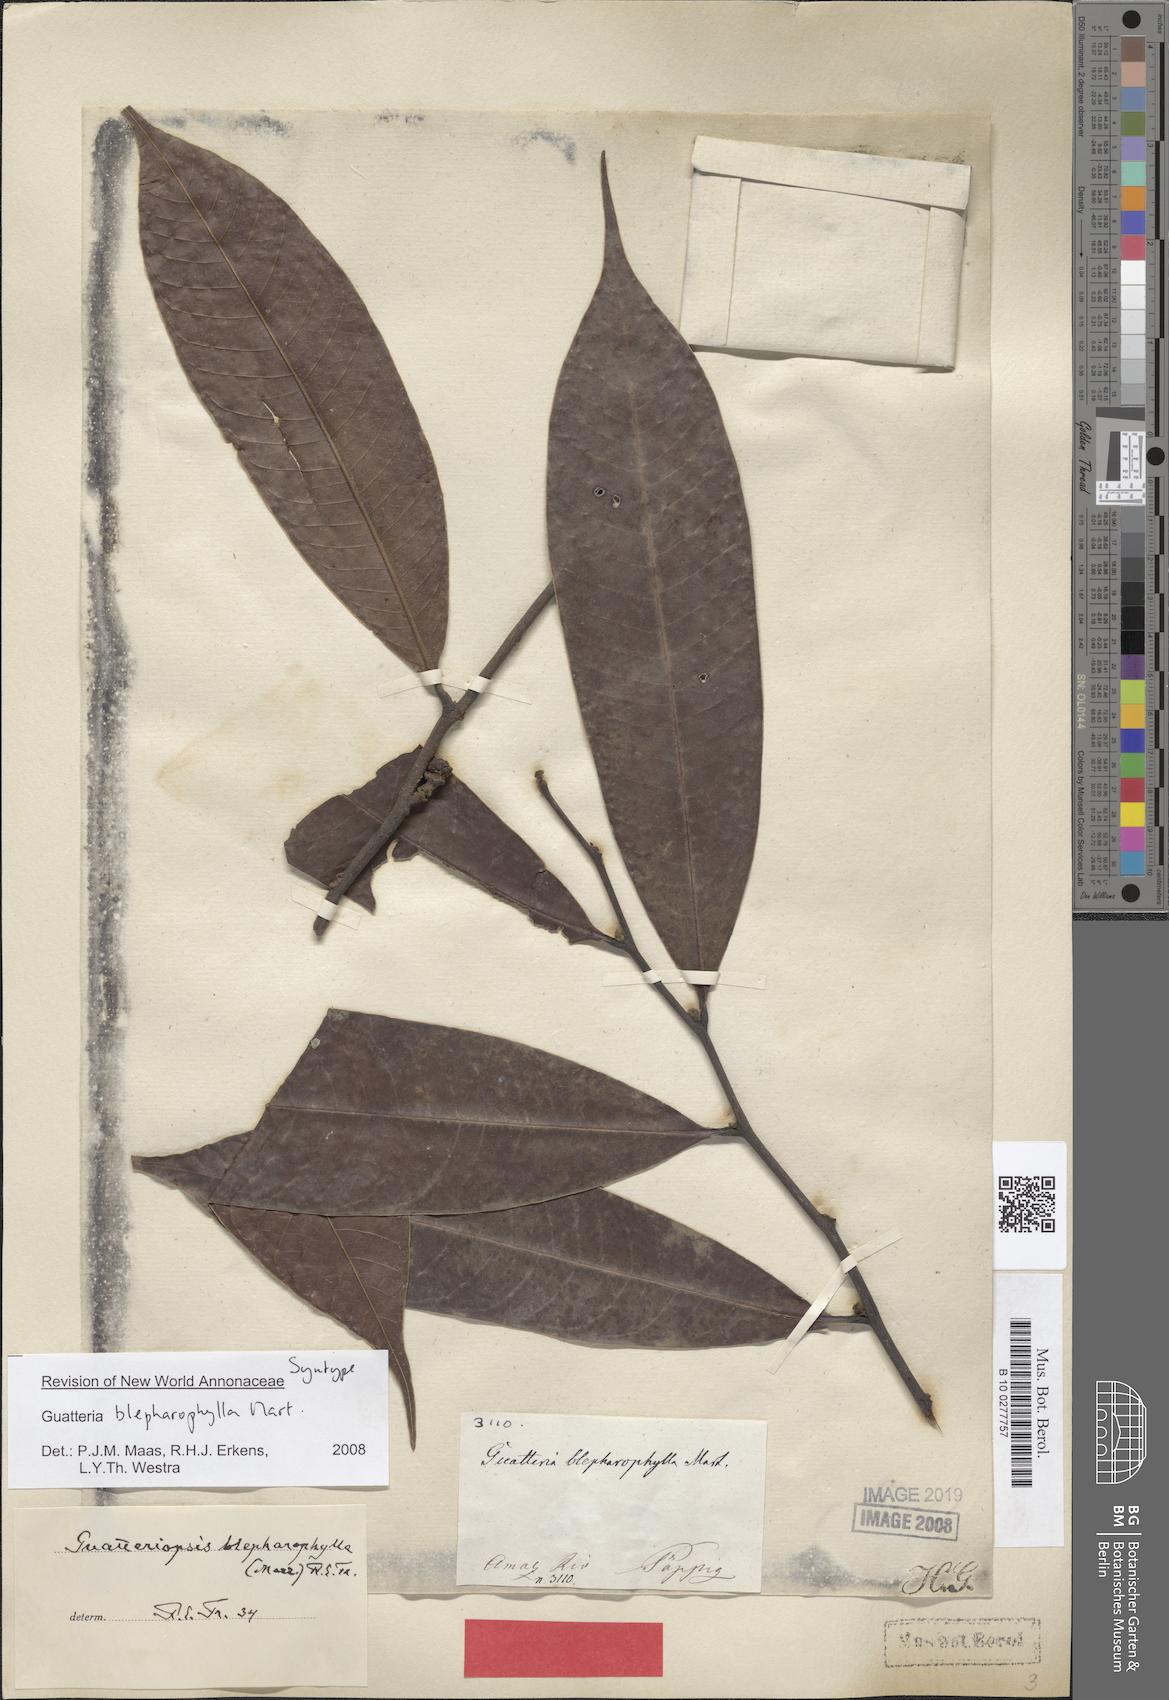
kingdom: Plantae
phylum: Tracheophyta
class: Magnoliopsida
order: Magnoliales
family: Annonaceae
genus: Guatteria
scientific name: Guatteria blepharophylla
